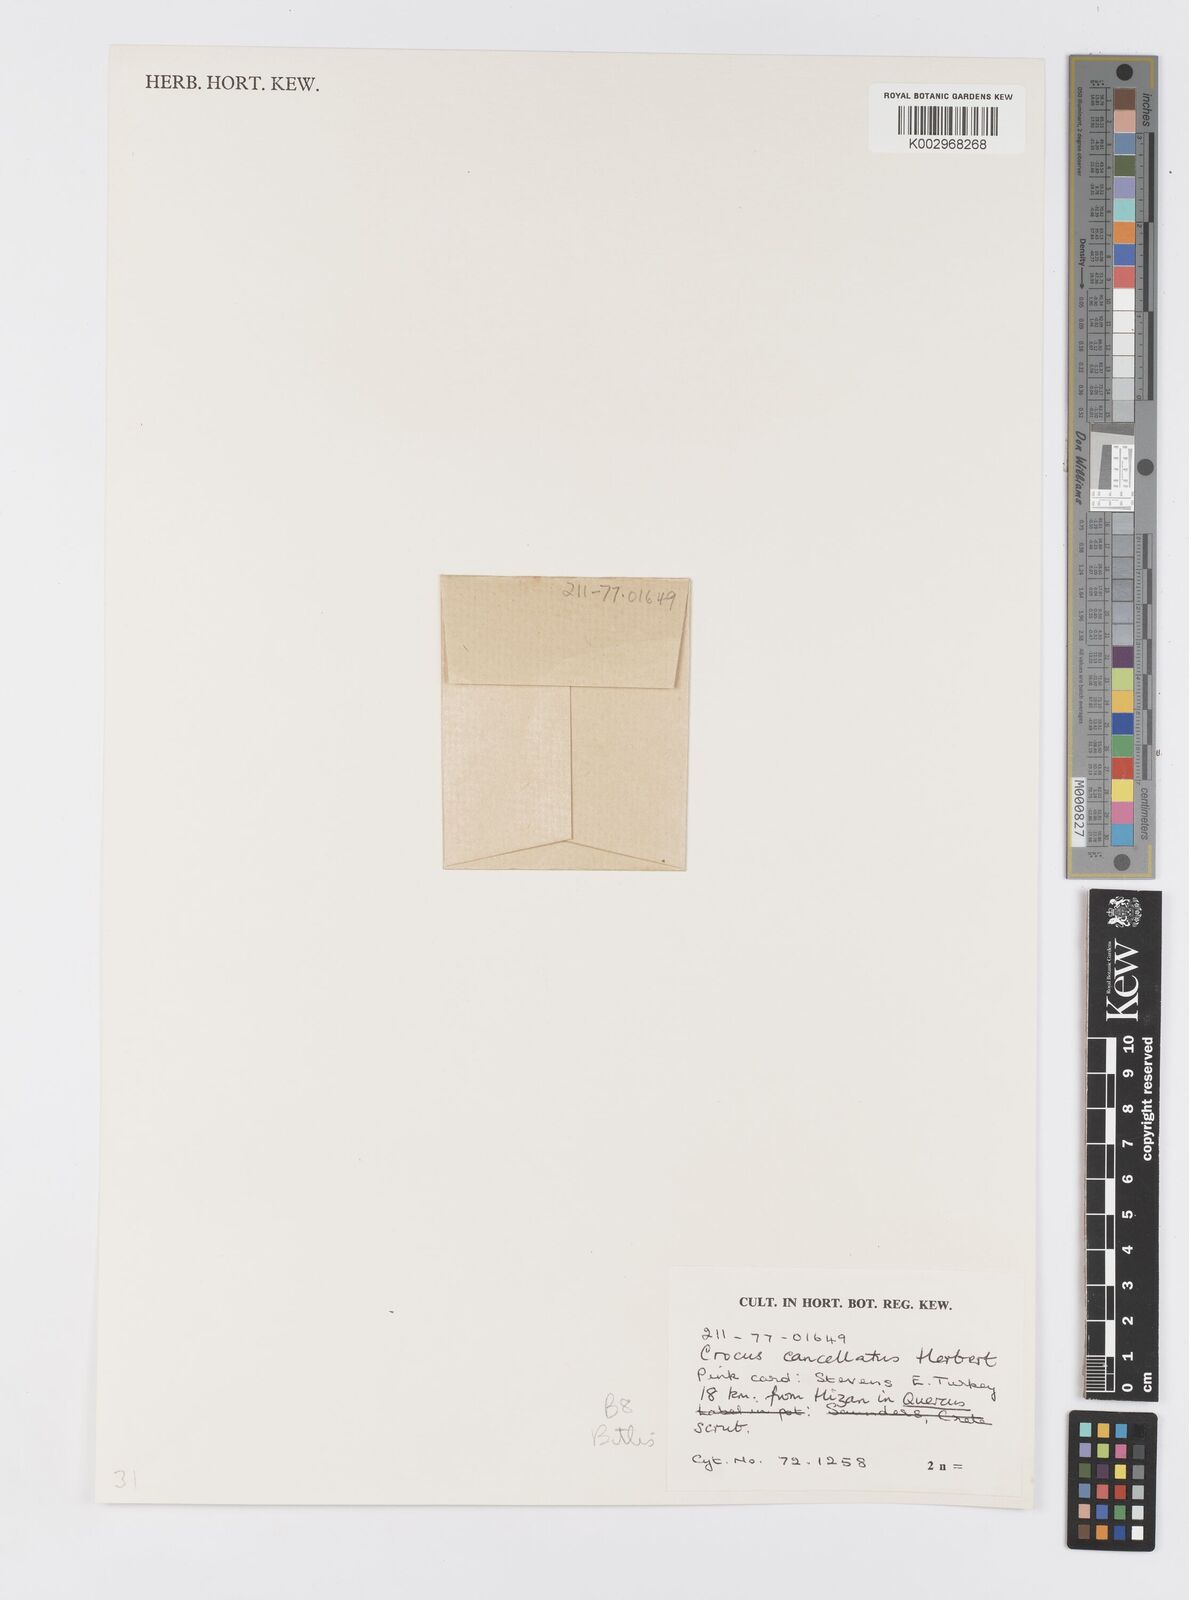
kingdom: Plantae
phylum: Tracheophyta
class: Liliopsida
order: Asparagales
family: Iridaceae
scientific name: Iridaceae
